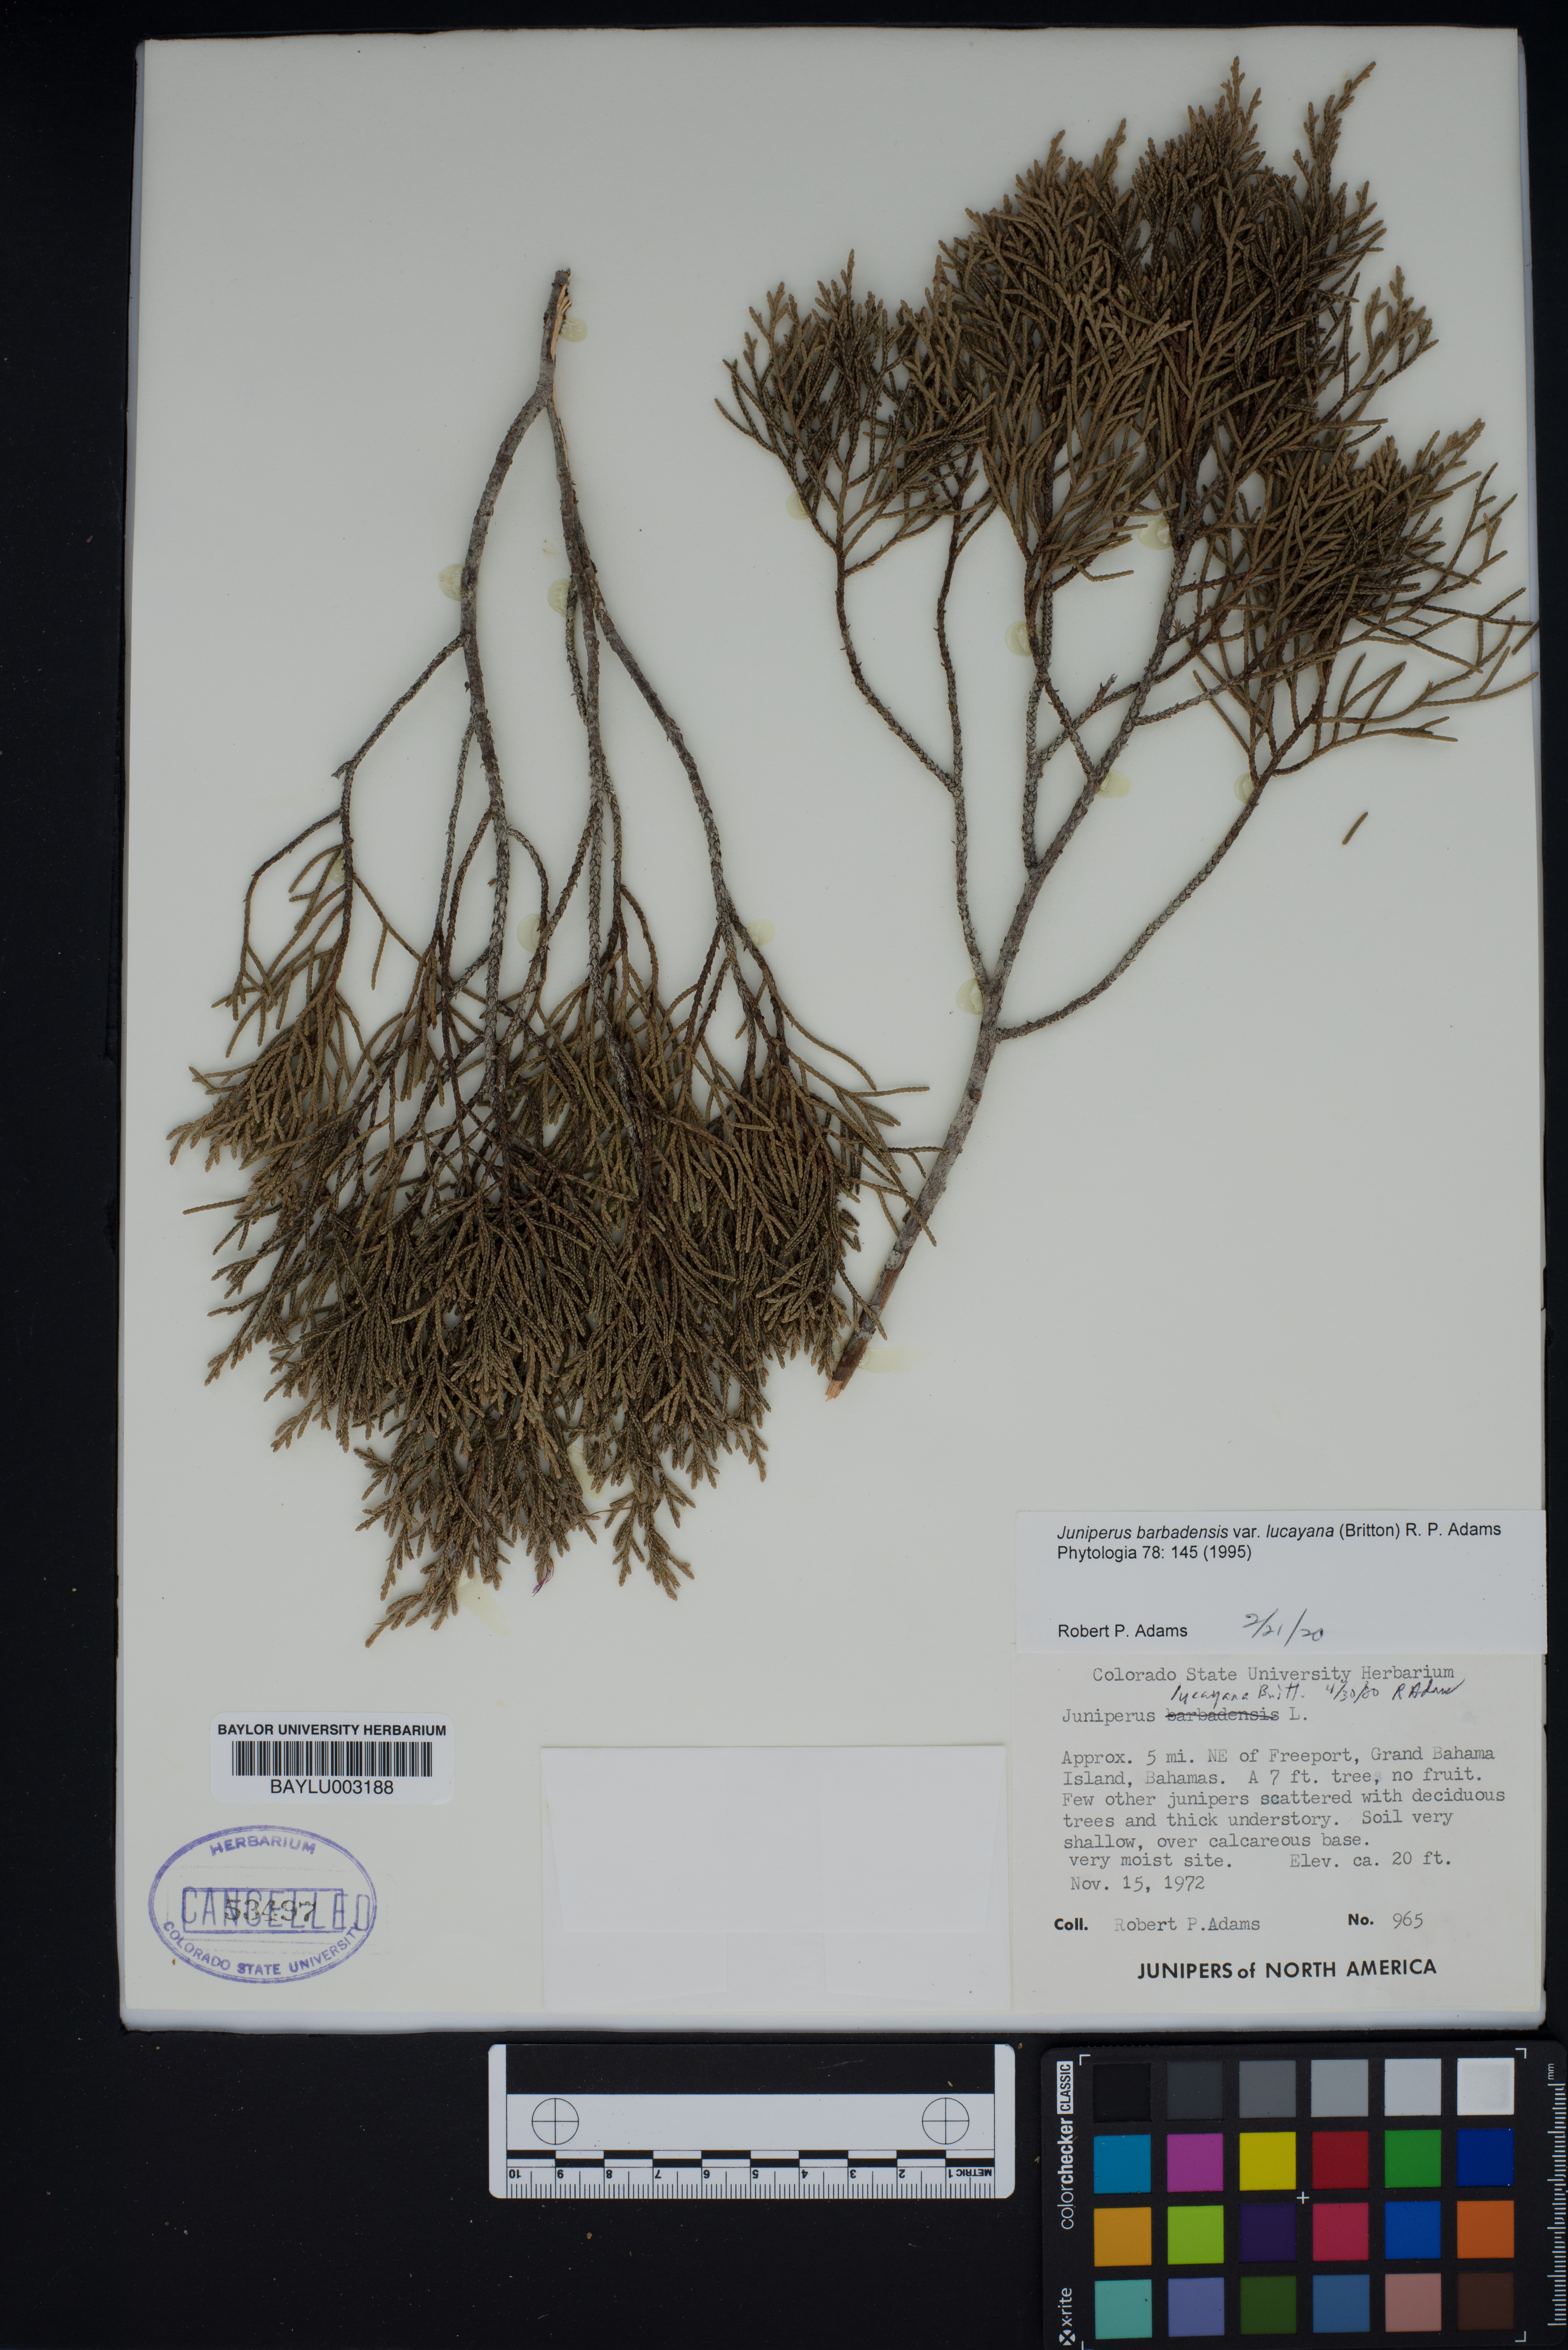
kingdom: Plantae
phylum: Tracheophyta
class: Pinopsida
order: Pinales
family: Cupressaceae
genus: Juniperus
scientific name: Juniperus barbadensis
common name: West indies juniper
